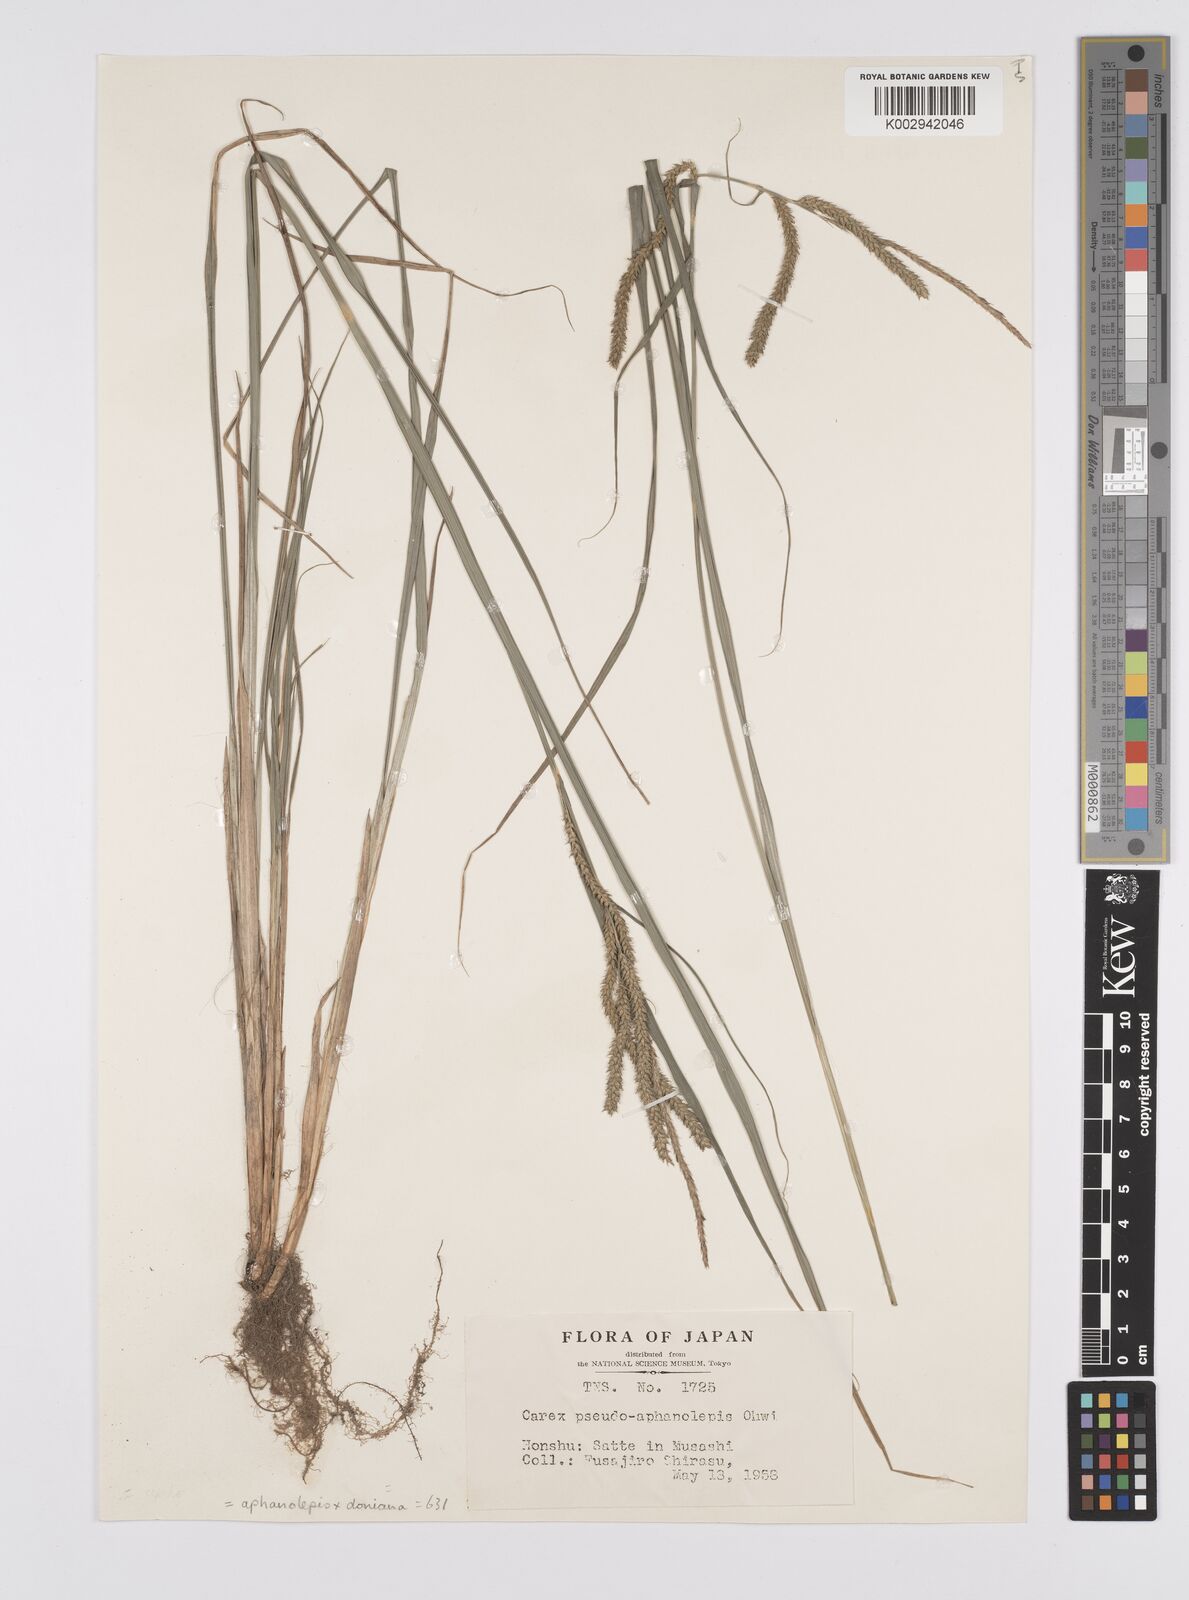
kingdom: Plantae
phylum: Tracheophyta
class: Liliopsida
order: Poales
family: Cyperaceae
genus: Carex
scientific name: Carex pseudoaphanolepis
